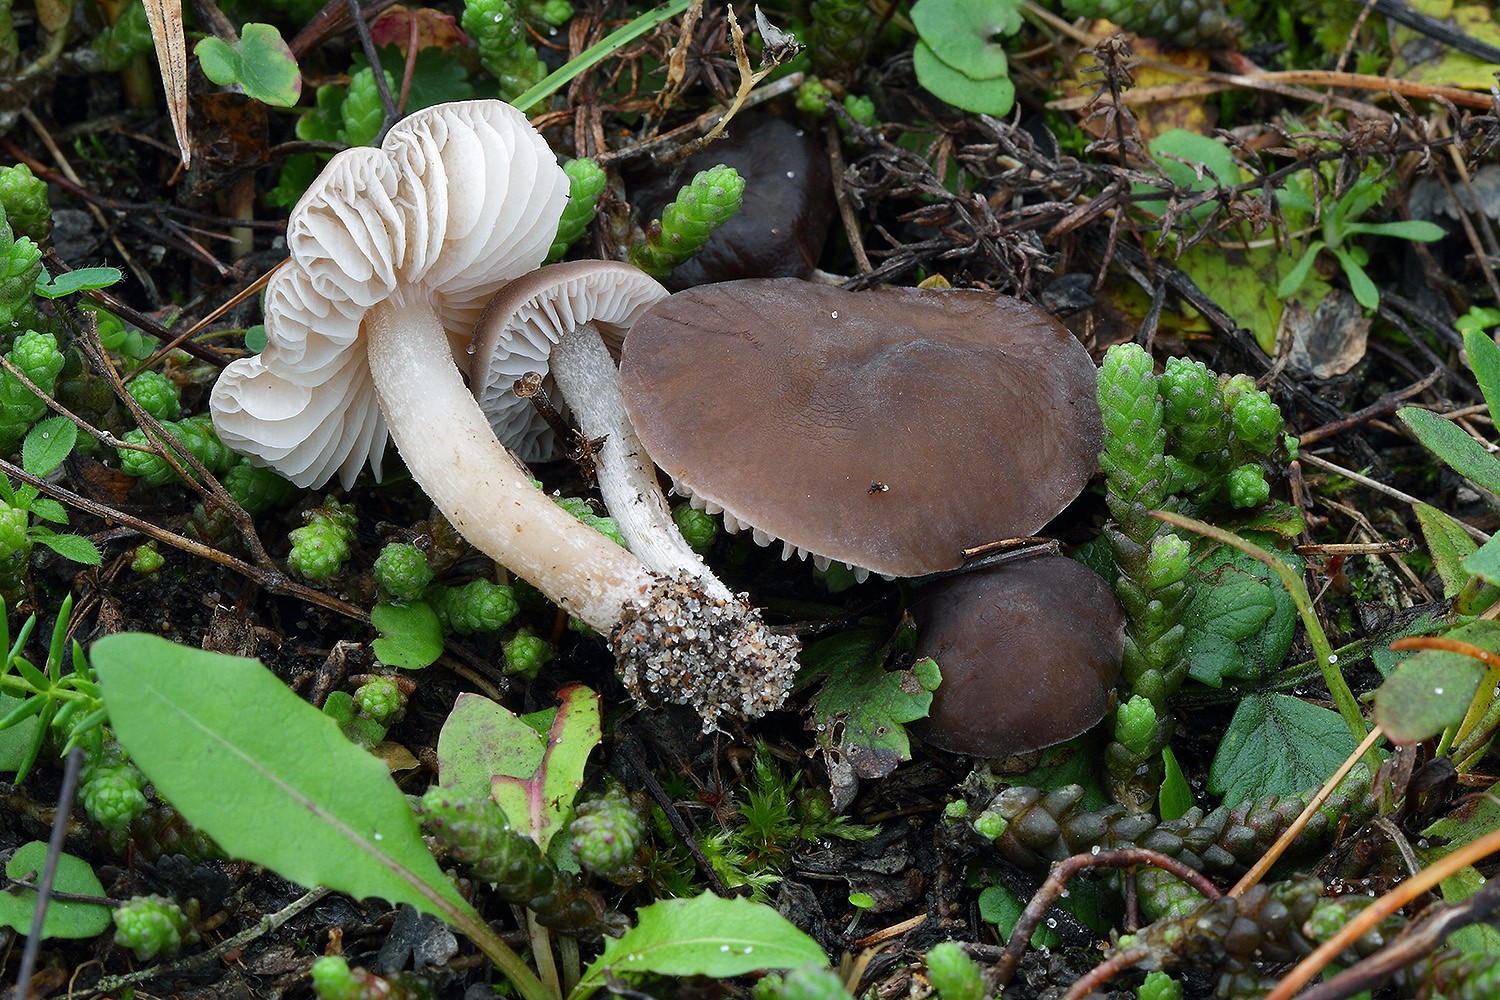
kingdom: Fungi
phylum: Basidiomycota
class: Agaricomycetes
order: Agaricales
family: Tricholomataceae
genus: Dermoloma
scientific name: Dermoloma cuneifolium
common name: eng-nonnehat
